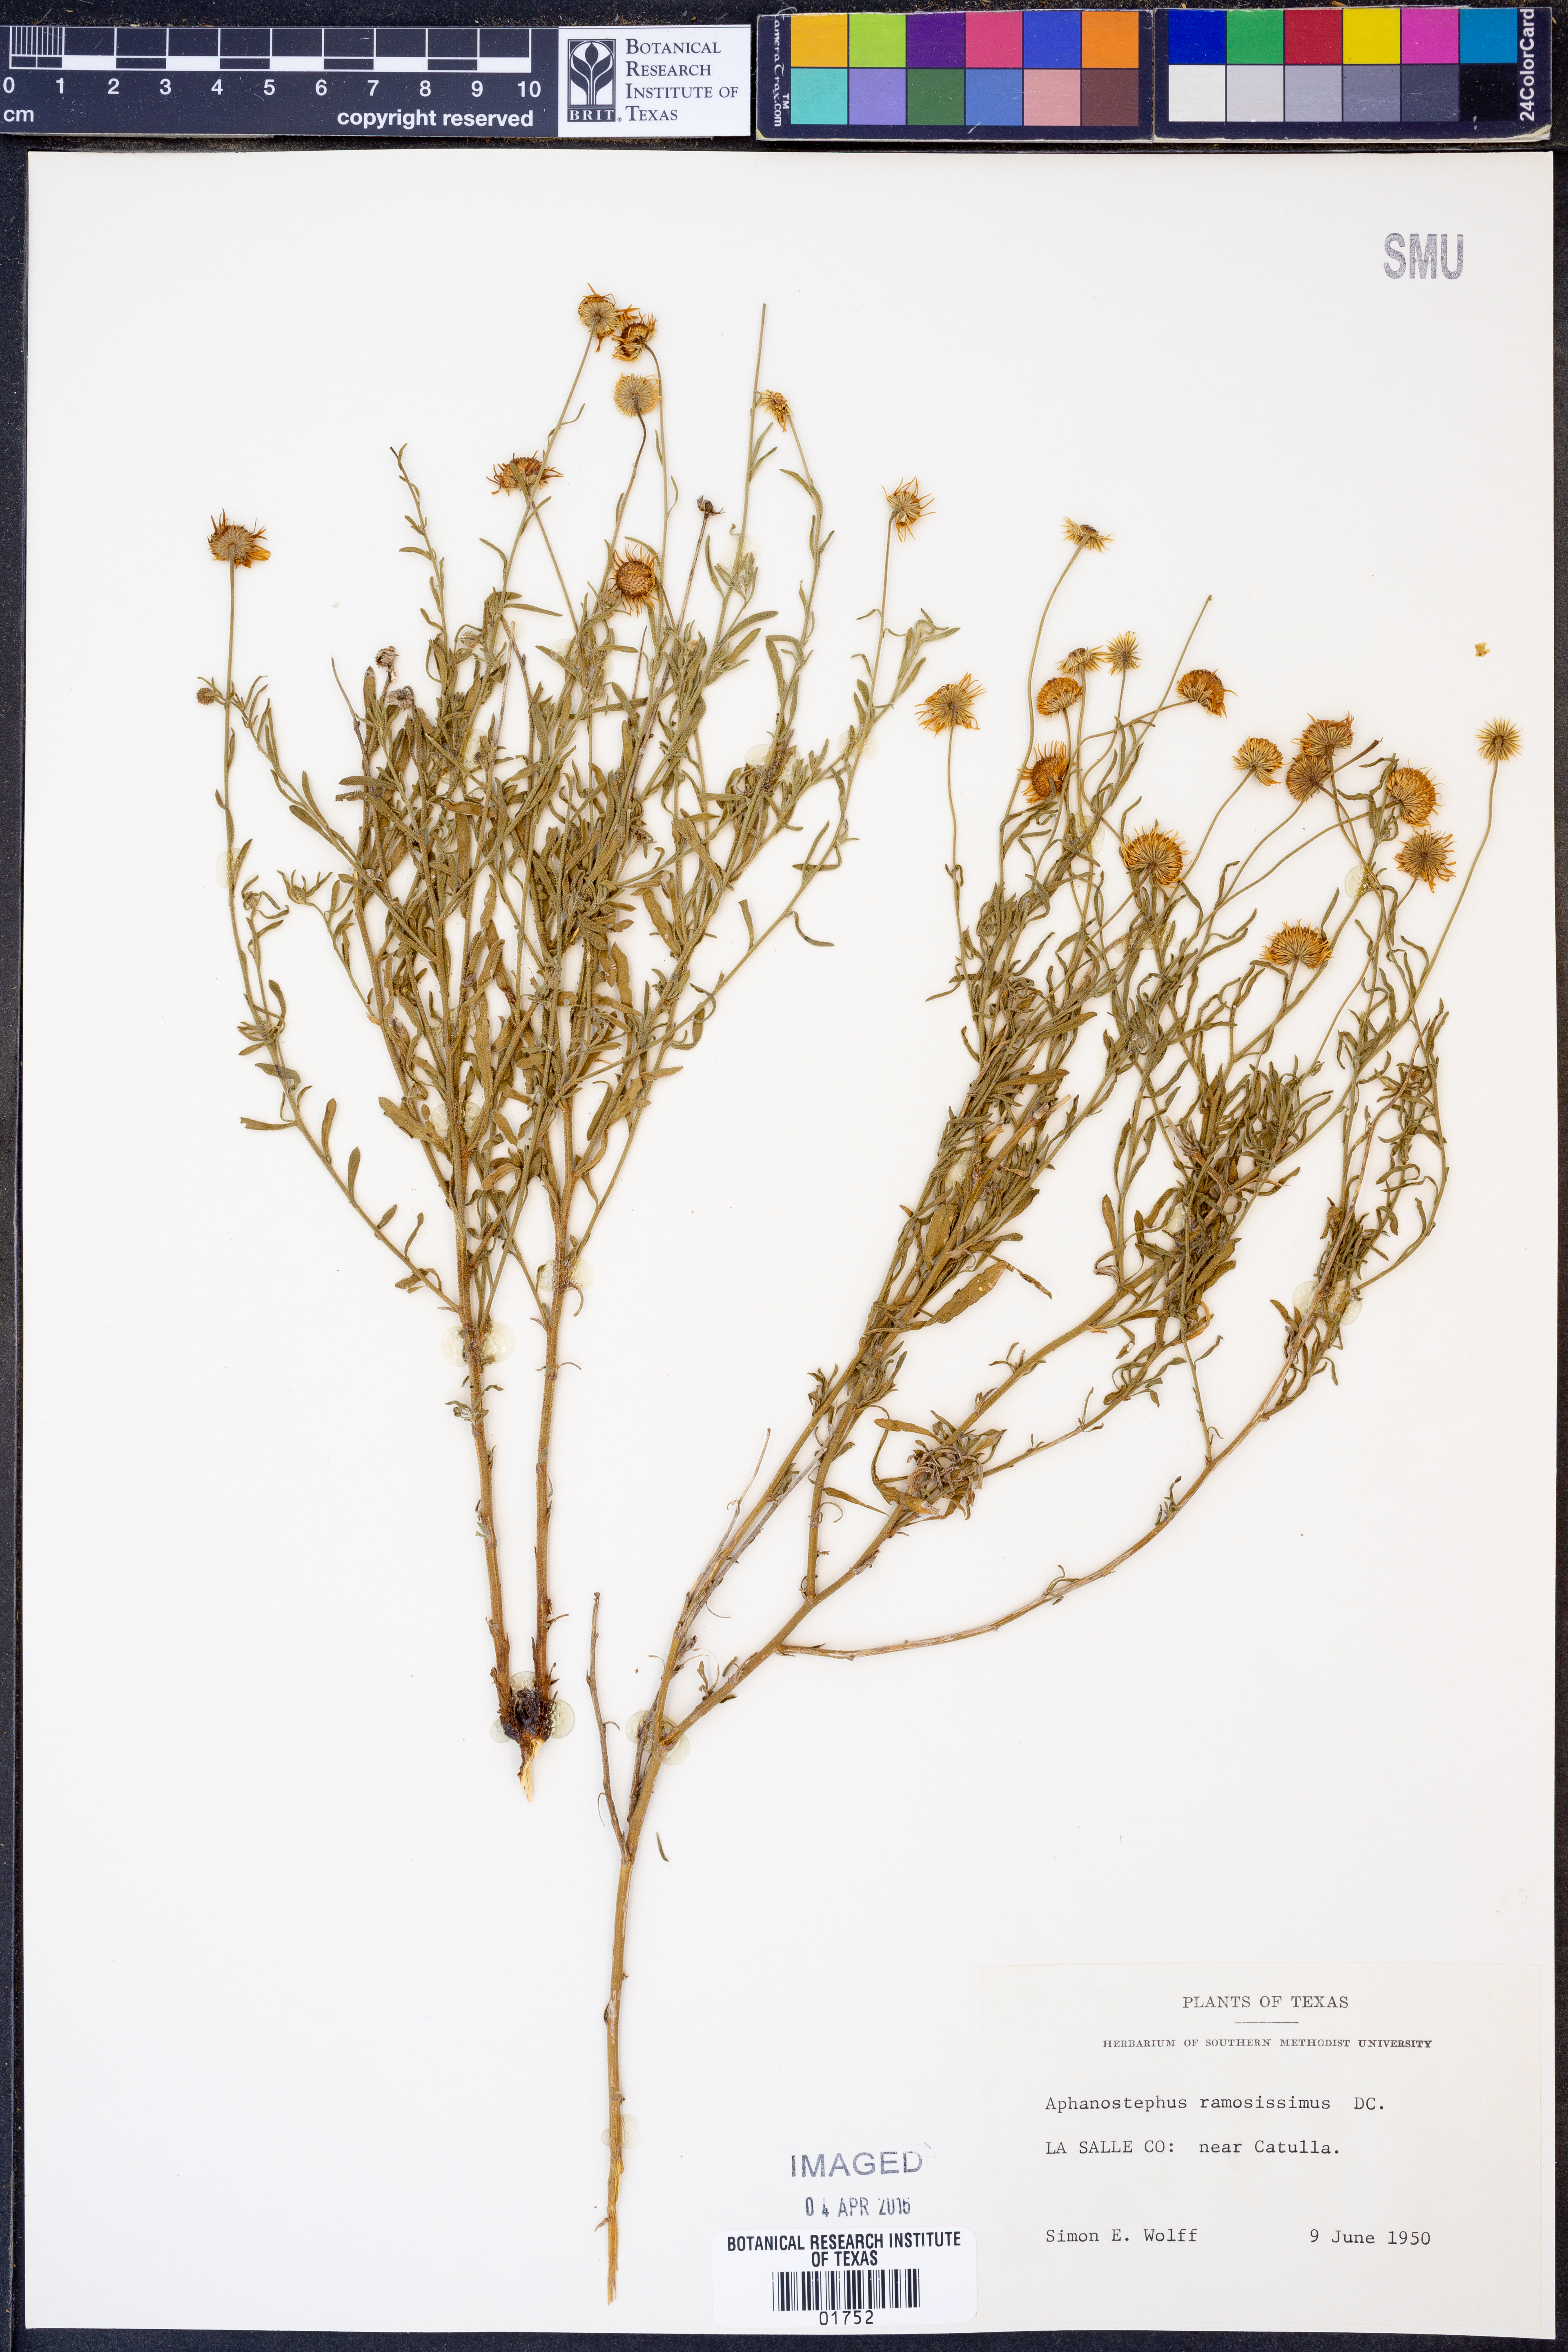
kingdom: Plantae
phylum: Tracheophyta
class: Magnoliopsida
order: Asterales
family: Asteraceae
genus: Aphanostephus
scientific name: Aphanostephus ramosissimus
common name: Plains lazy daisy
